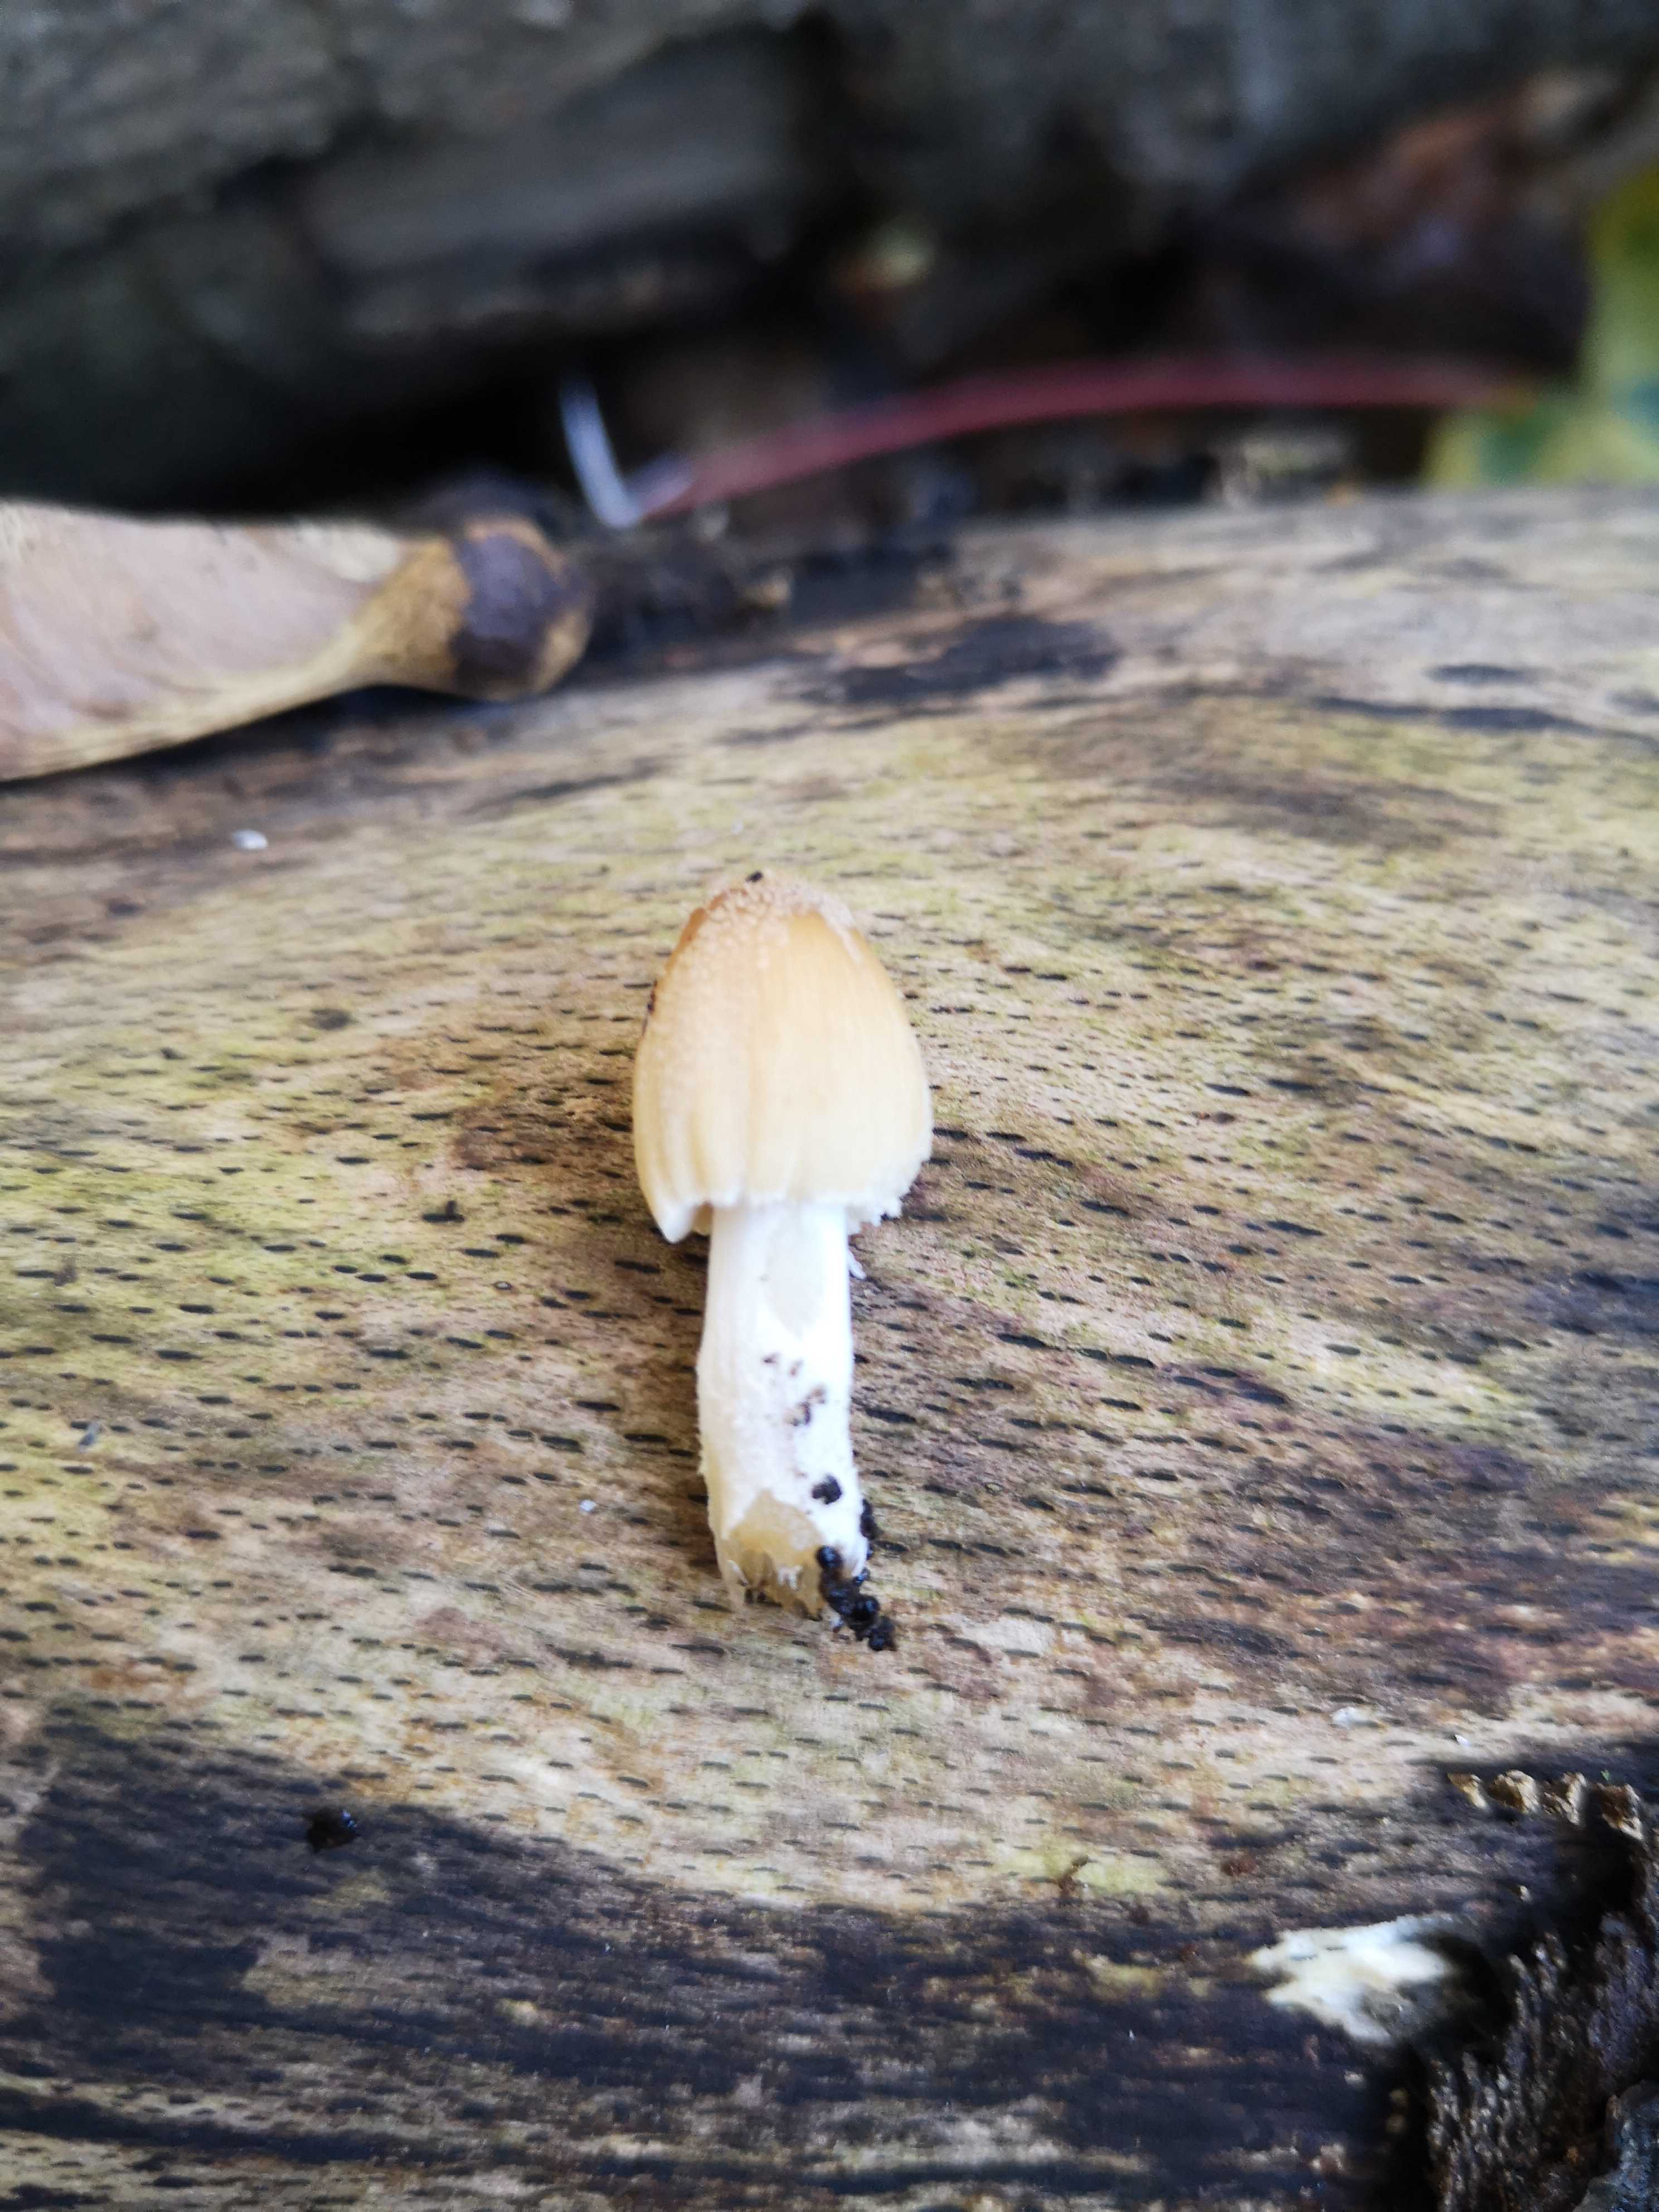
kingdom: Fungi
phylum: Basidiomycota
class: Agaricomycetes
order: Agaricales
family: Psathyrellaceae
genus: Coprinellus
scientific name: Coprinellus micaceus
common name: glimmer-blækhat
